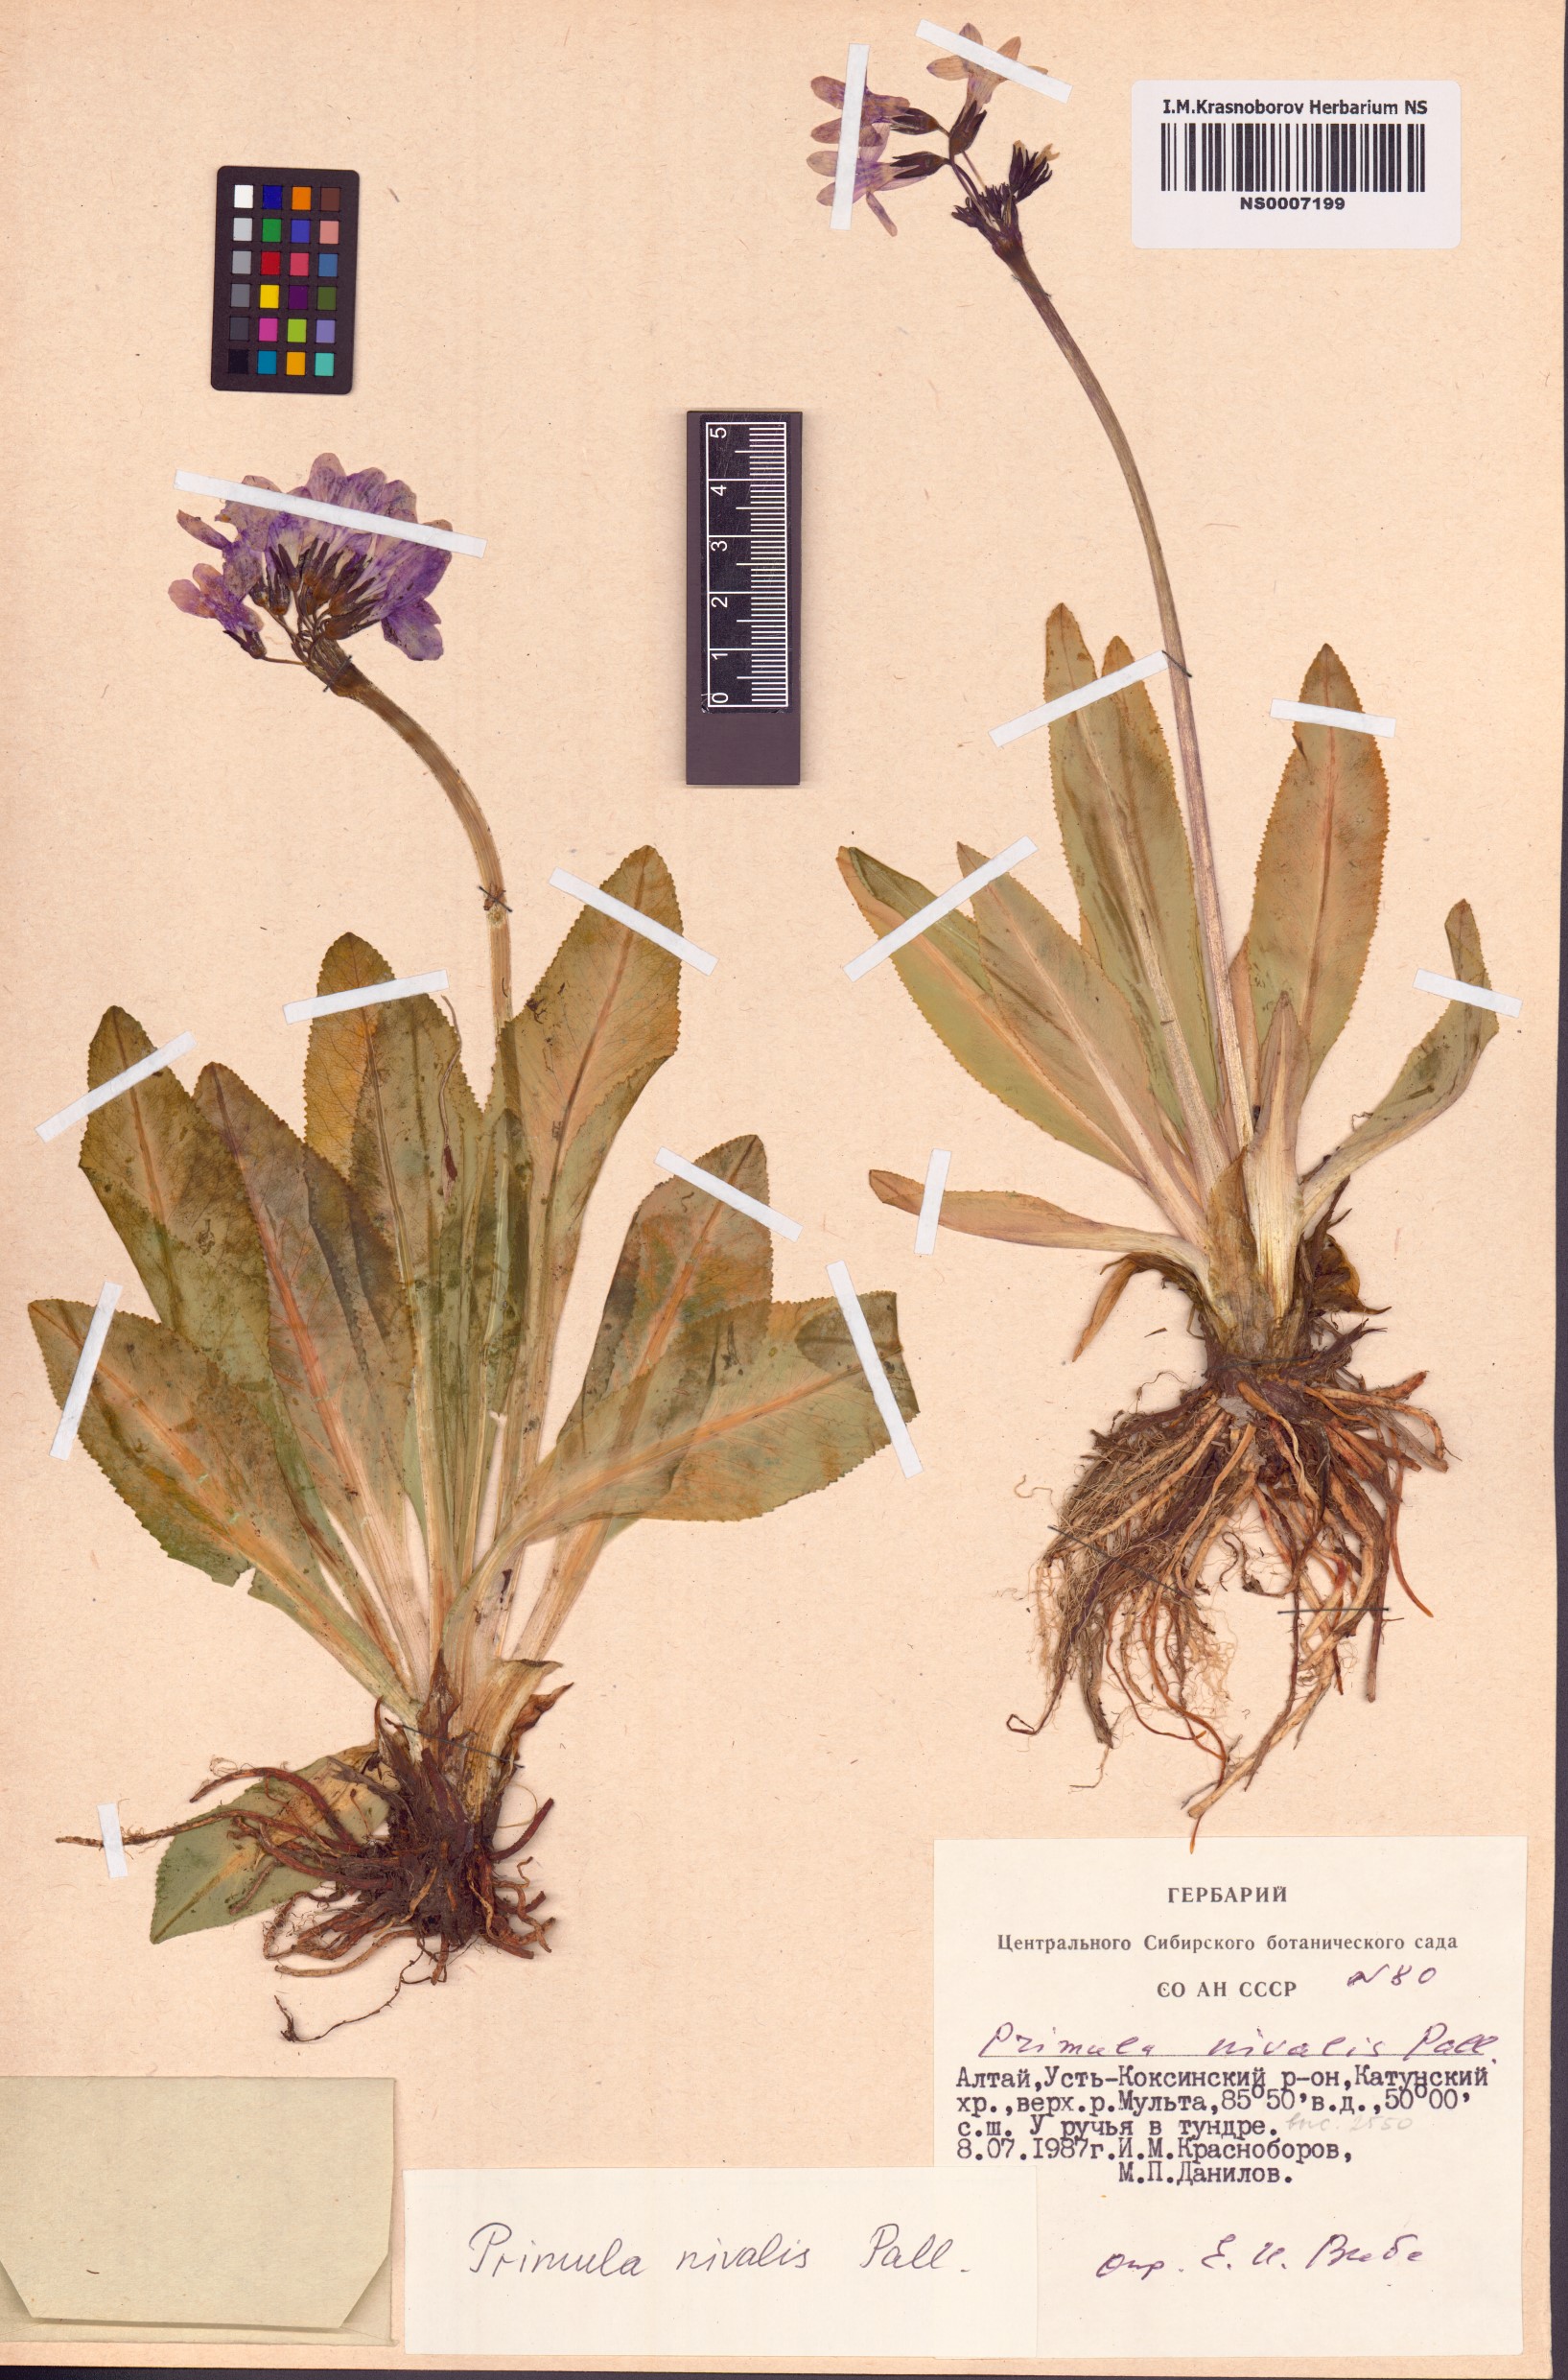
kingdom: Plantae
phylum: Tracheophyta
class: Magnoliopsida
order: Ericales
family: Primulaceae
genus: Primula
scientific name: Primula nivalis
